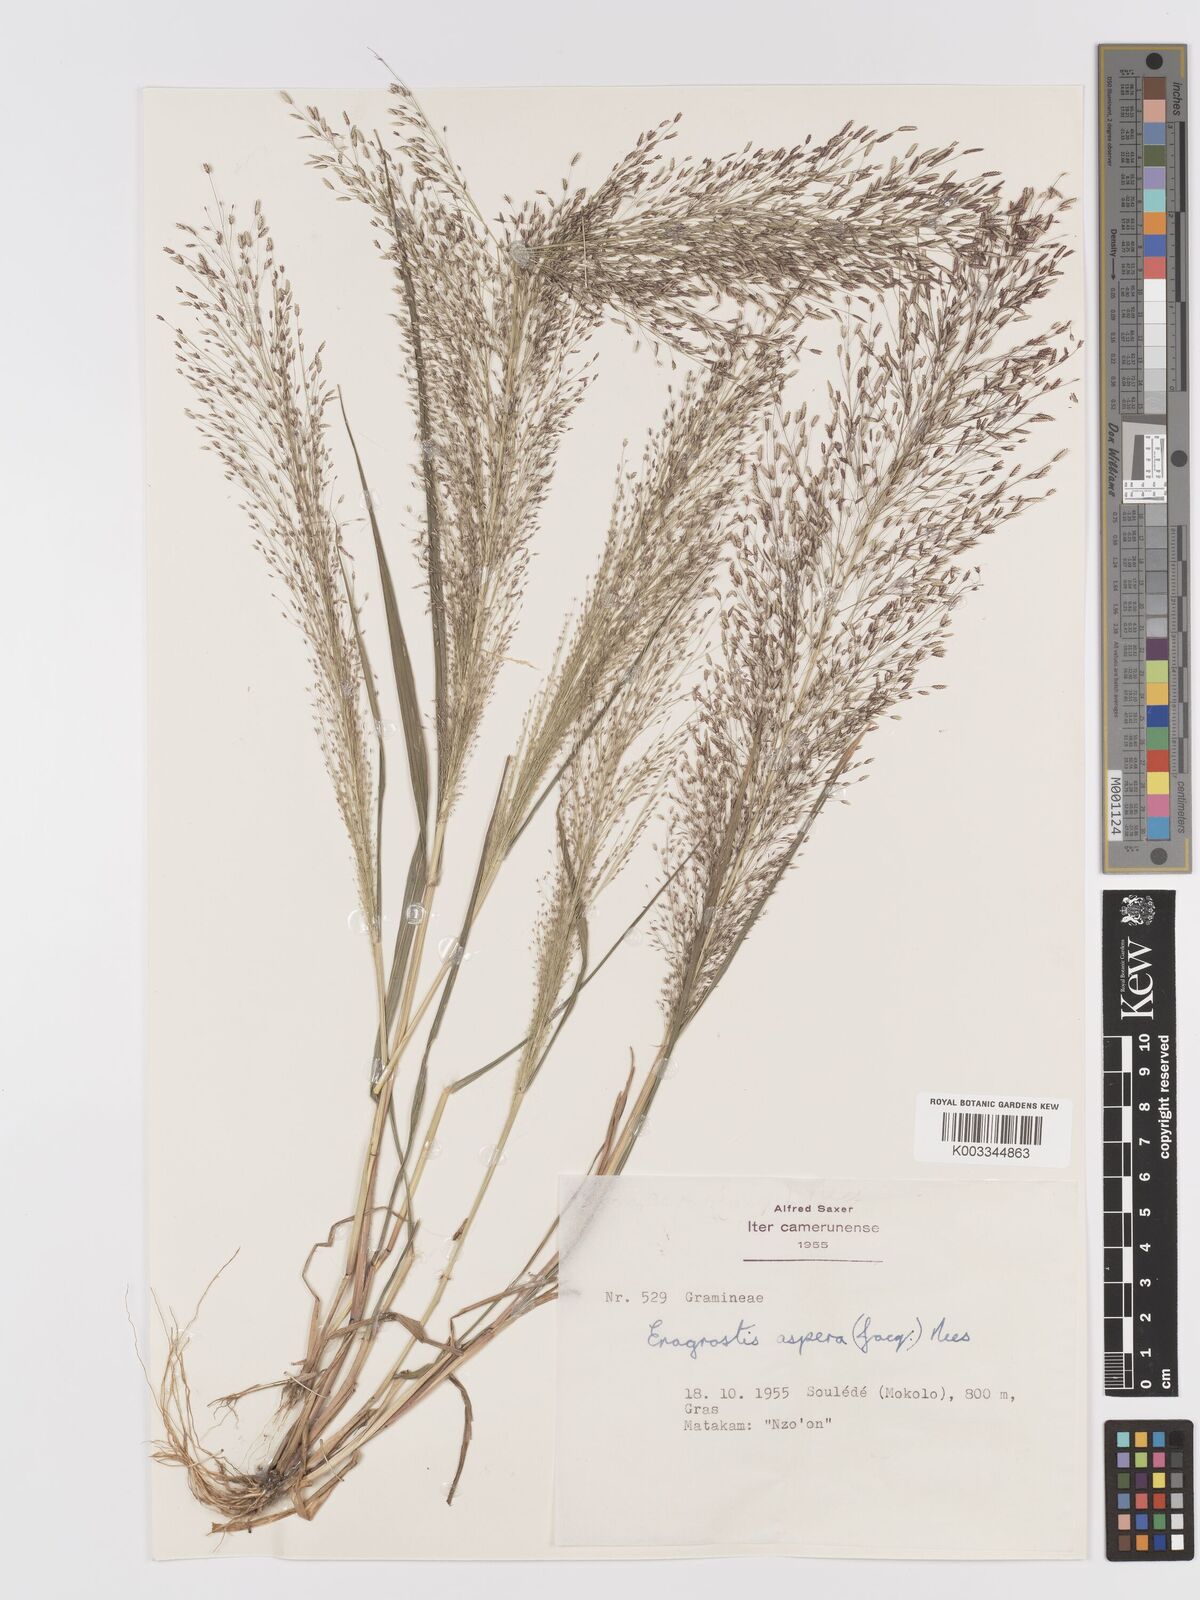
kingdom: Plantae
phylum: Tracheophyta
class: Liliopsida
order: Poales
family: Poaceae
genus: Eragrostis
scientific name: Eragrostis aspera
